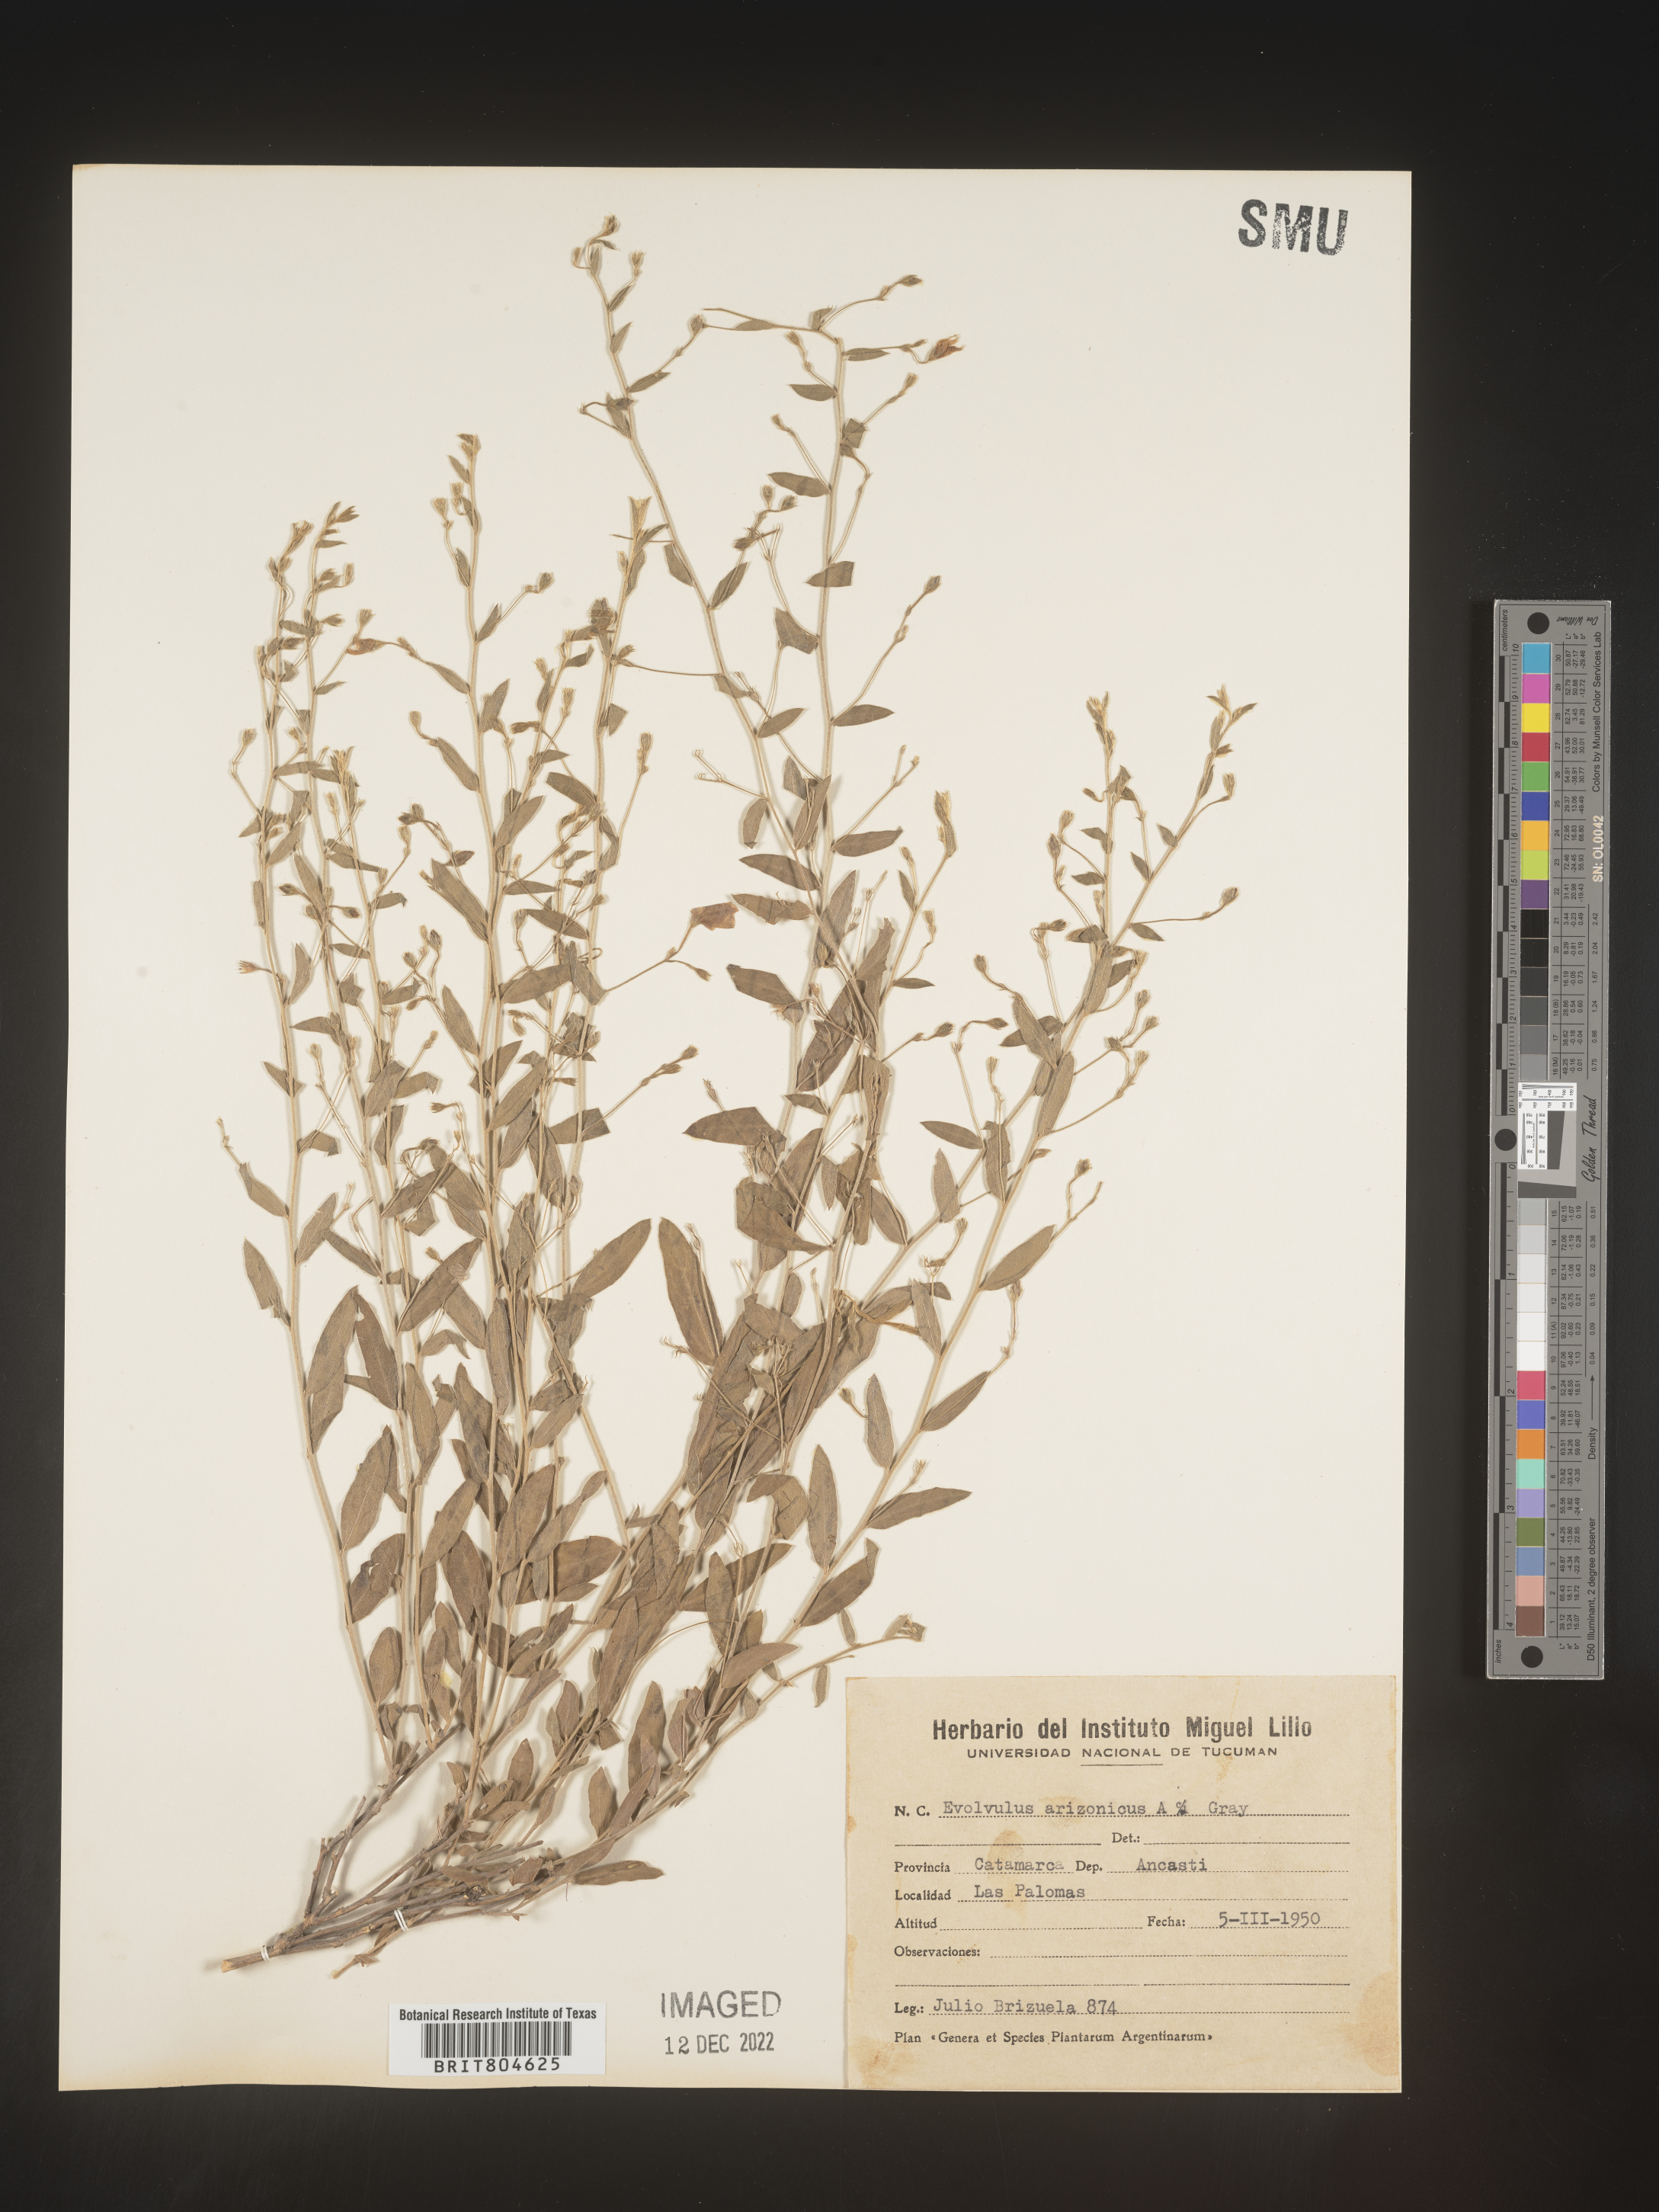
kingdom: Plantae
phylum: Tracheophyta
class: Magnoliopsida
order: Solanales
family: Convolvulaceae
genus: Evolvulus
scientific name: Evolvulus
